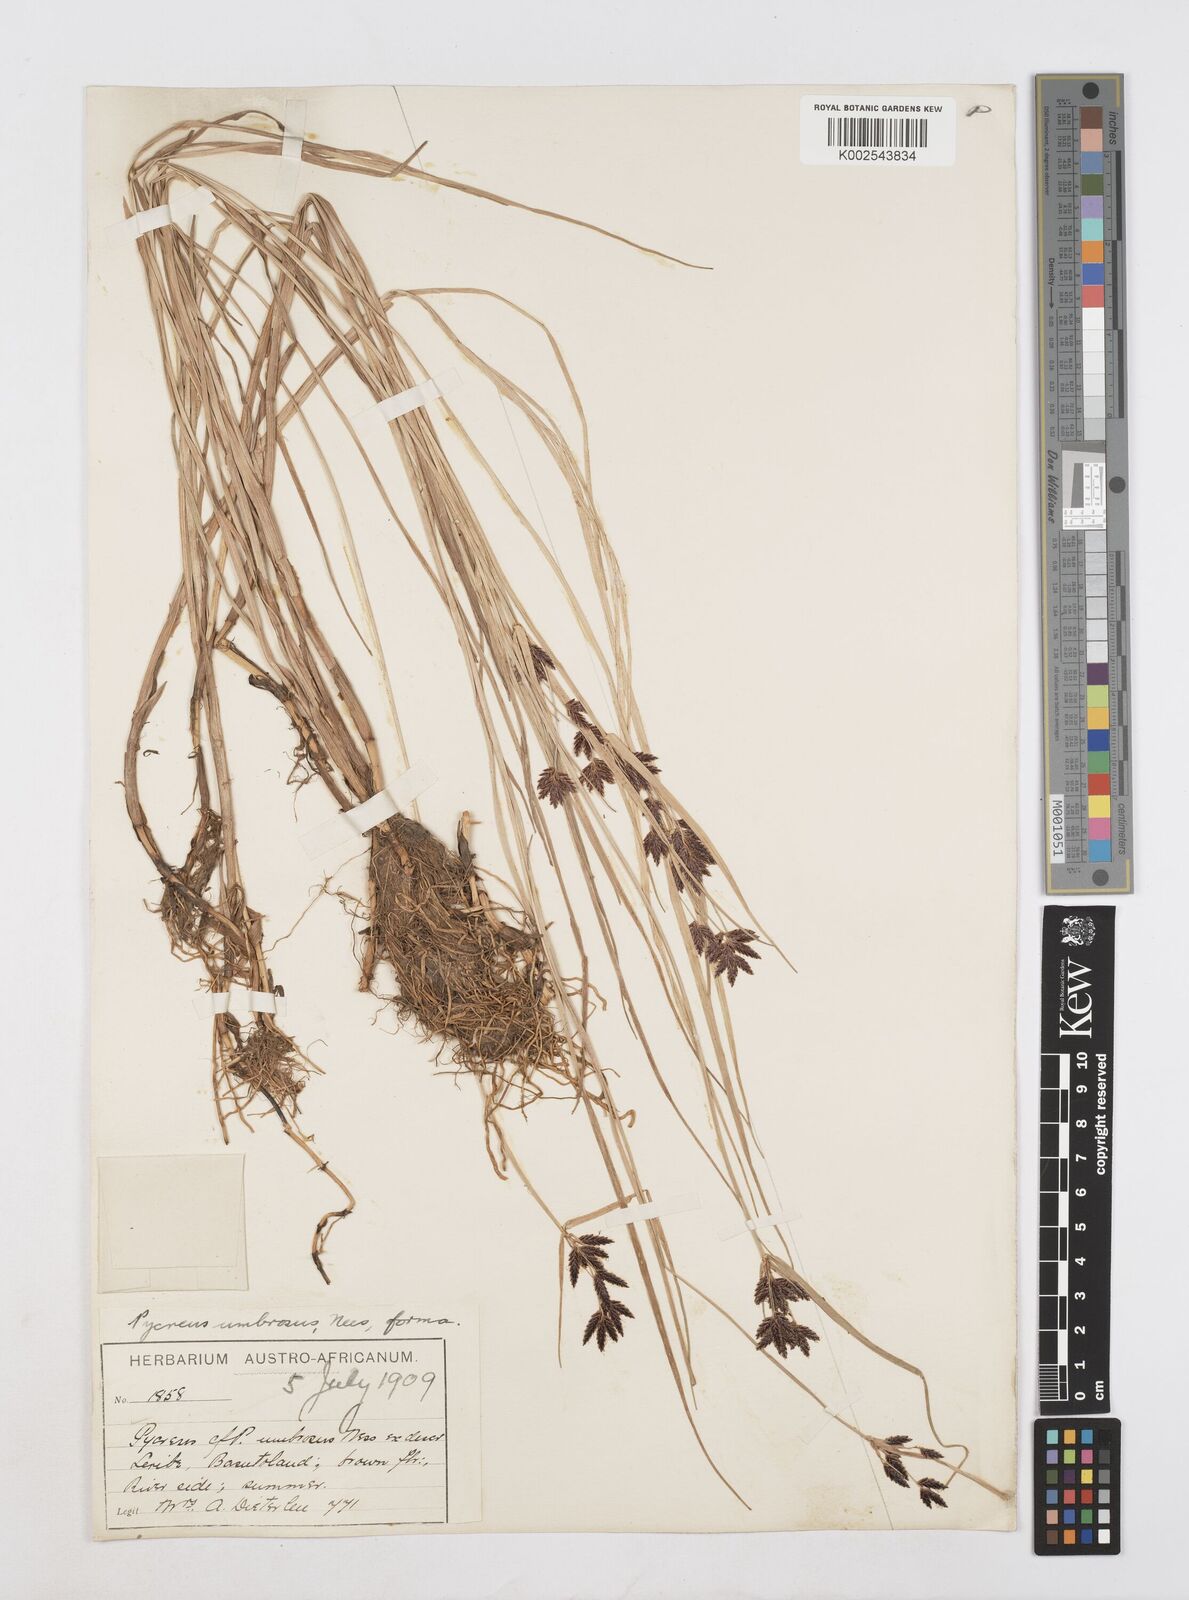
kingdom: Plantae
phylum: Tracheophyta
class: Liliopsida
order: Poales
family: Cyperaceae
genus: Cyperus
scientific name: Cyperus mundii
